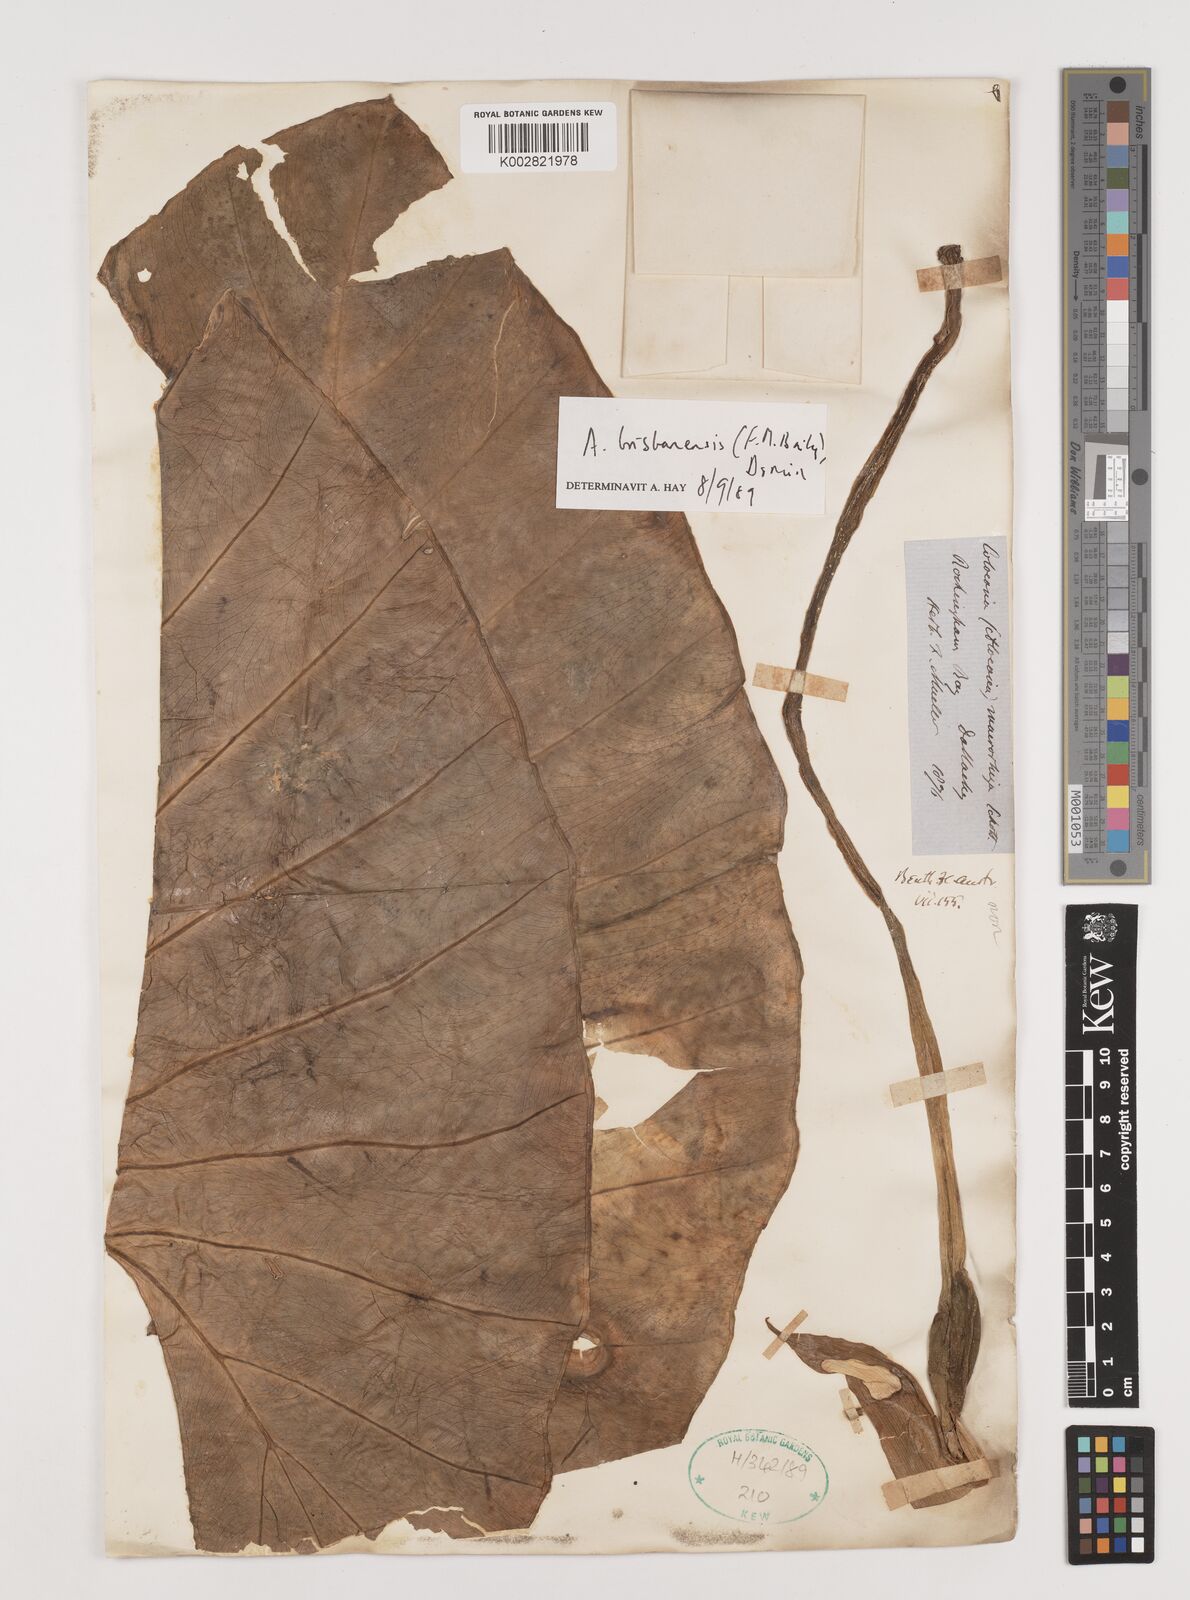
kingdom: Plantae
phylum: Tracheophyta
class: Liliopsida
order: Alismatales
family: Araceae
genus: Alocasia
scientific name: Alocasia brisbanensis
